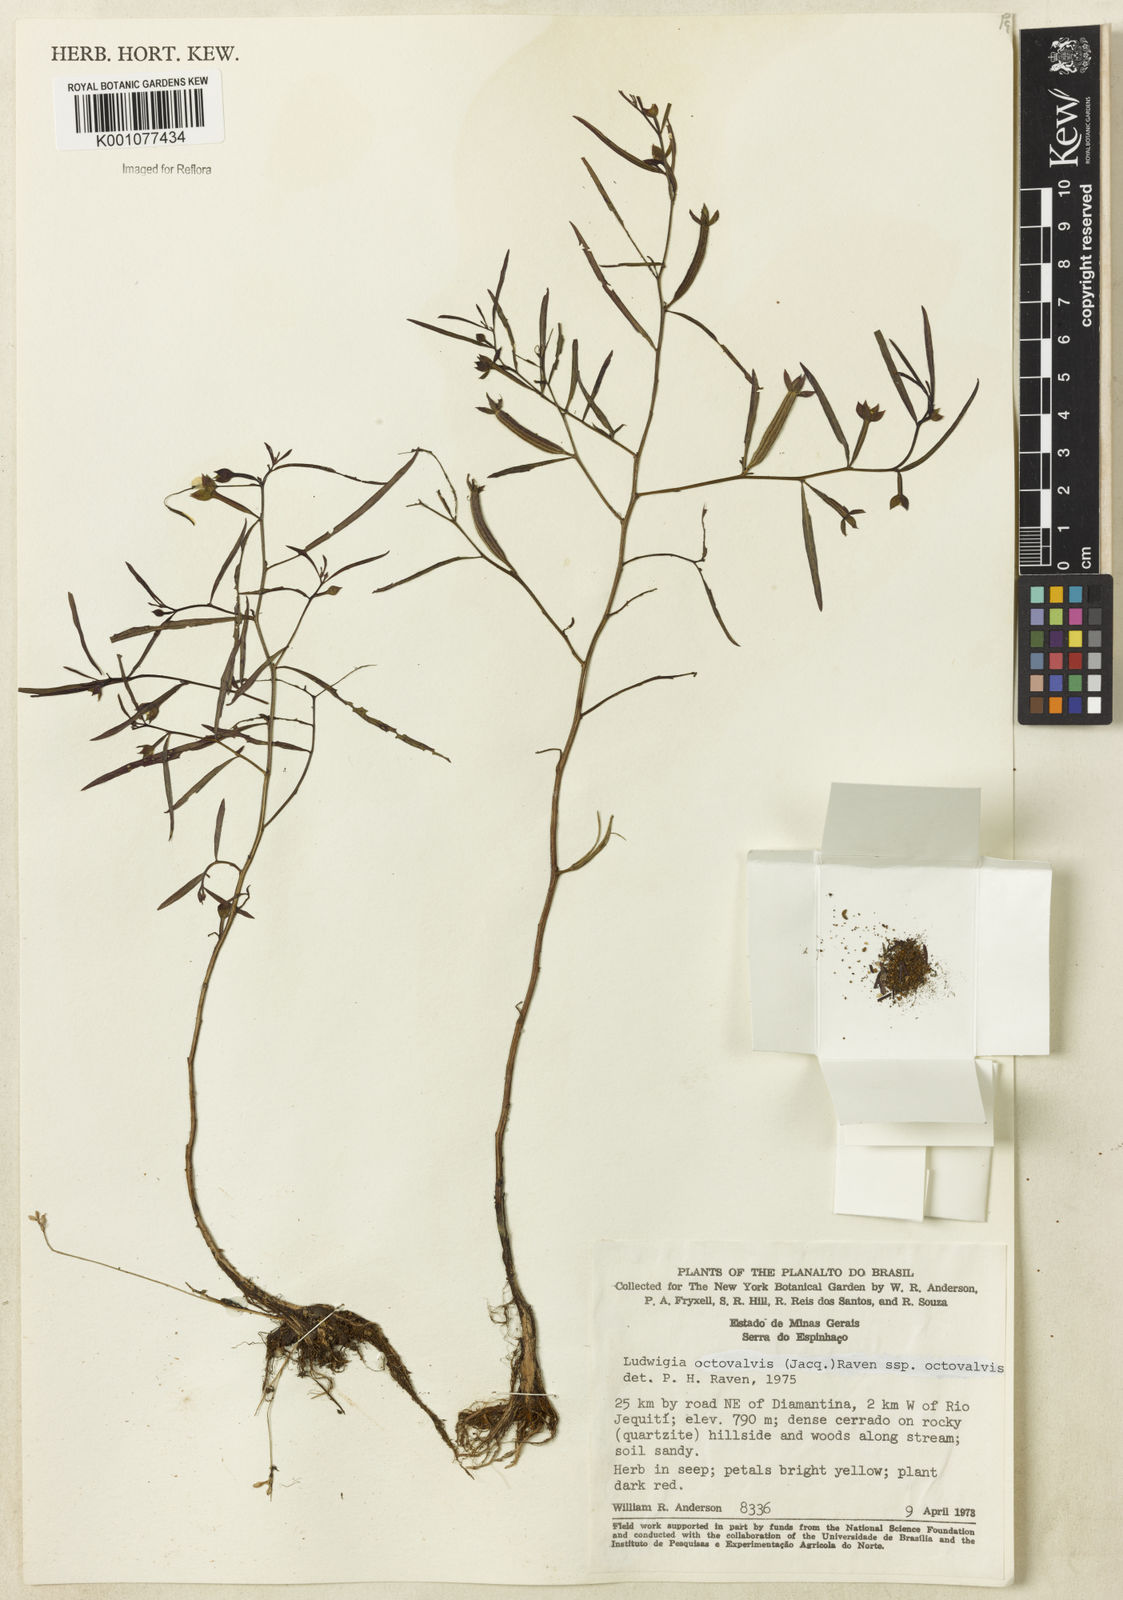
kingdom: Plantae
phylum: Tracheophyta
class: Magnoliopsida
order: Myrtales
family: Onagraceae
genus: Ludwigia
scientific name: Ludwigia octovalvis
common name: Water-primrose
